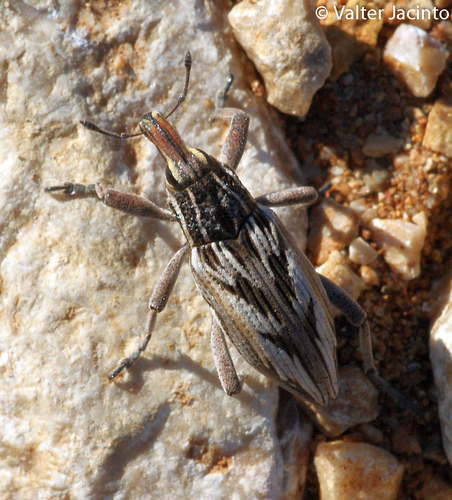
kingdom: Animalia
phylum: Arthropoda
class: Insecta
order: Coleoptera
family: Curculionidae
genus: Coniocleonus
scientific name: Coniocleonus nigrosuturatus
